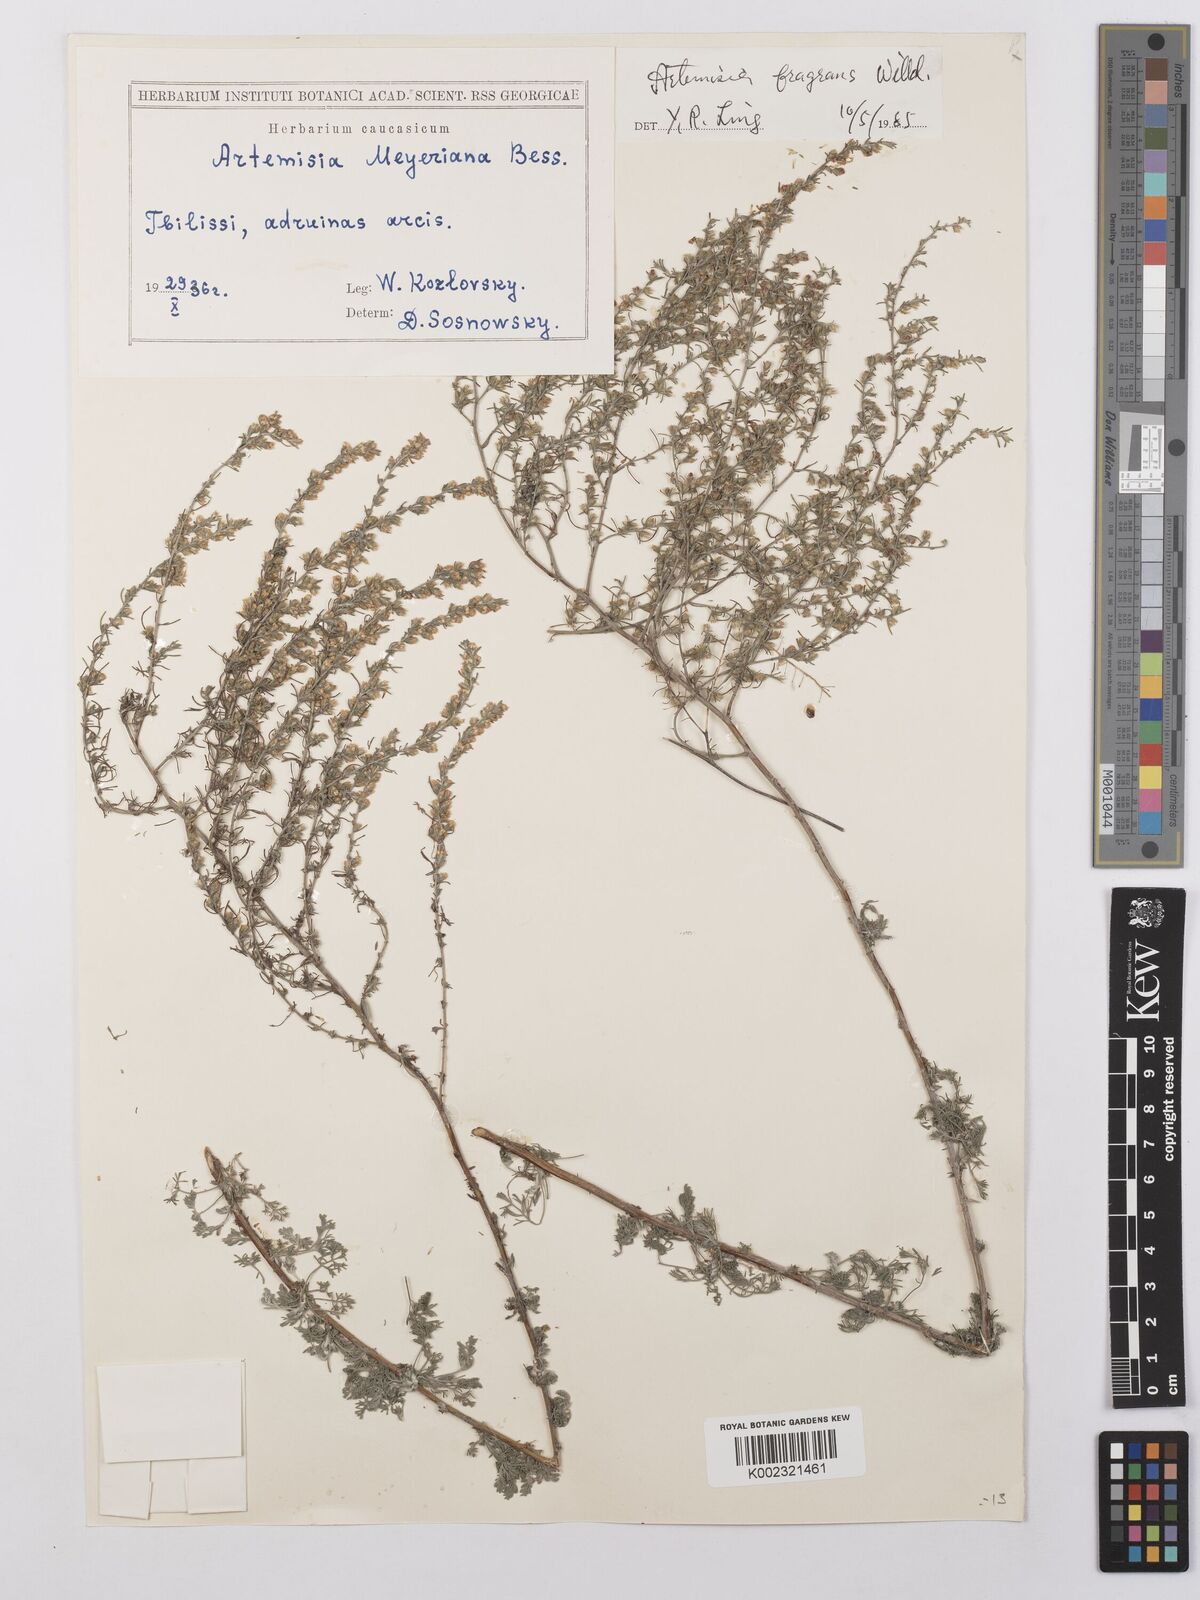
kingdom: Plantae
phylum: Tracheophyta
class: Magnoliopsida
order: Asterales
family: Asteraceae
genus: Artemisia
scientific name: Artemisia fragrans
